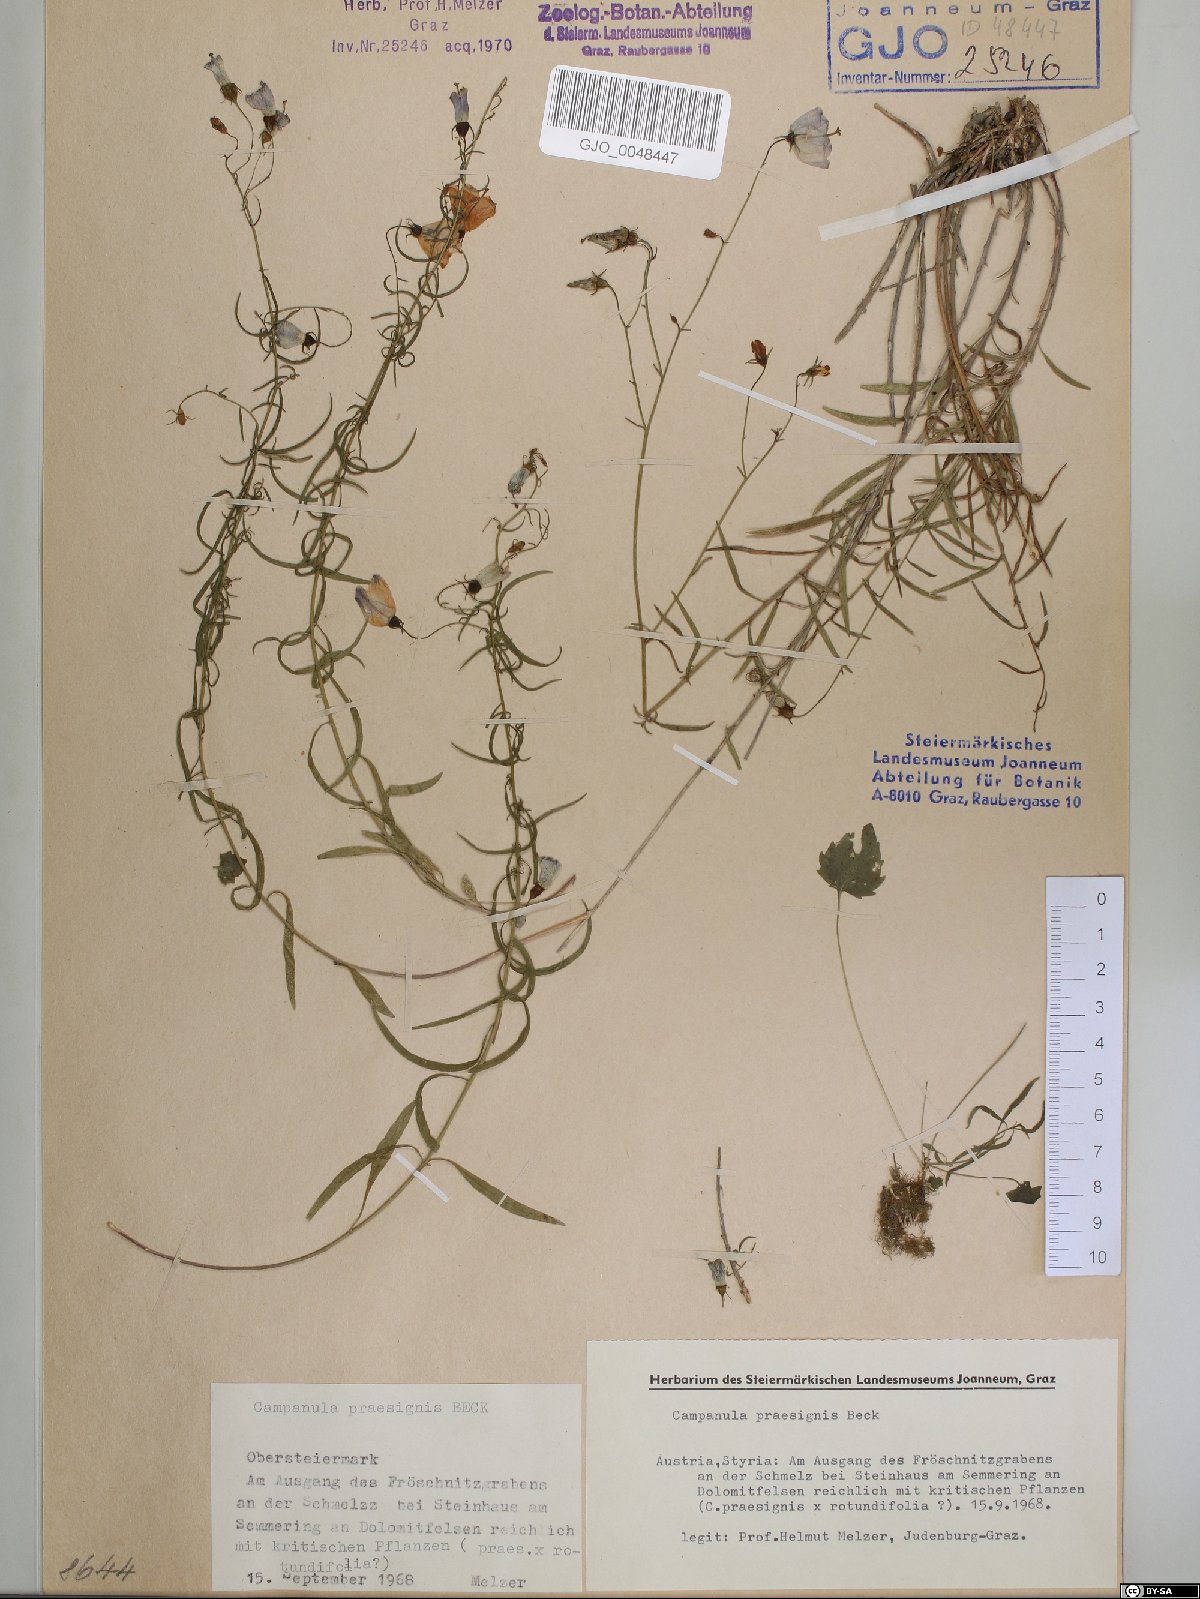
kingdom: Plantae
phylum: Tracheophyta
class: Magnoliopsida
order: Asterales
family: Campanulaceae
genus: Campanula
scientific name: Campanula praesignis
